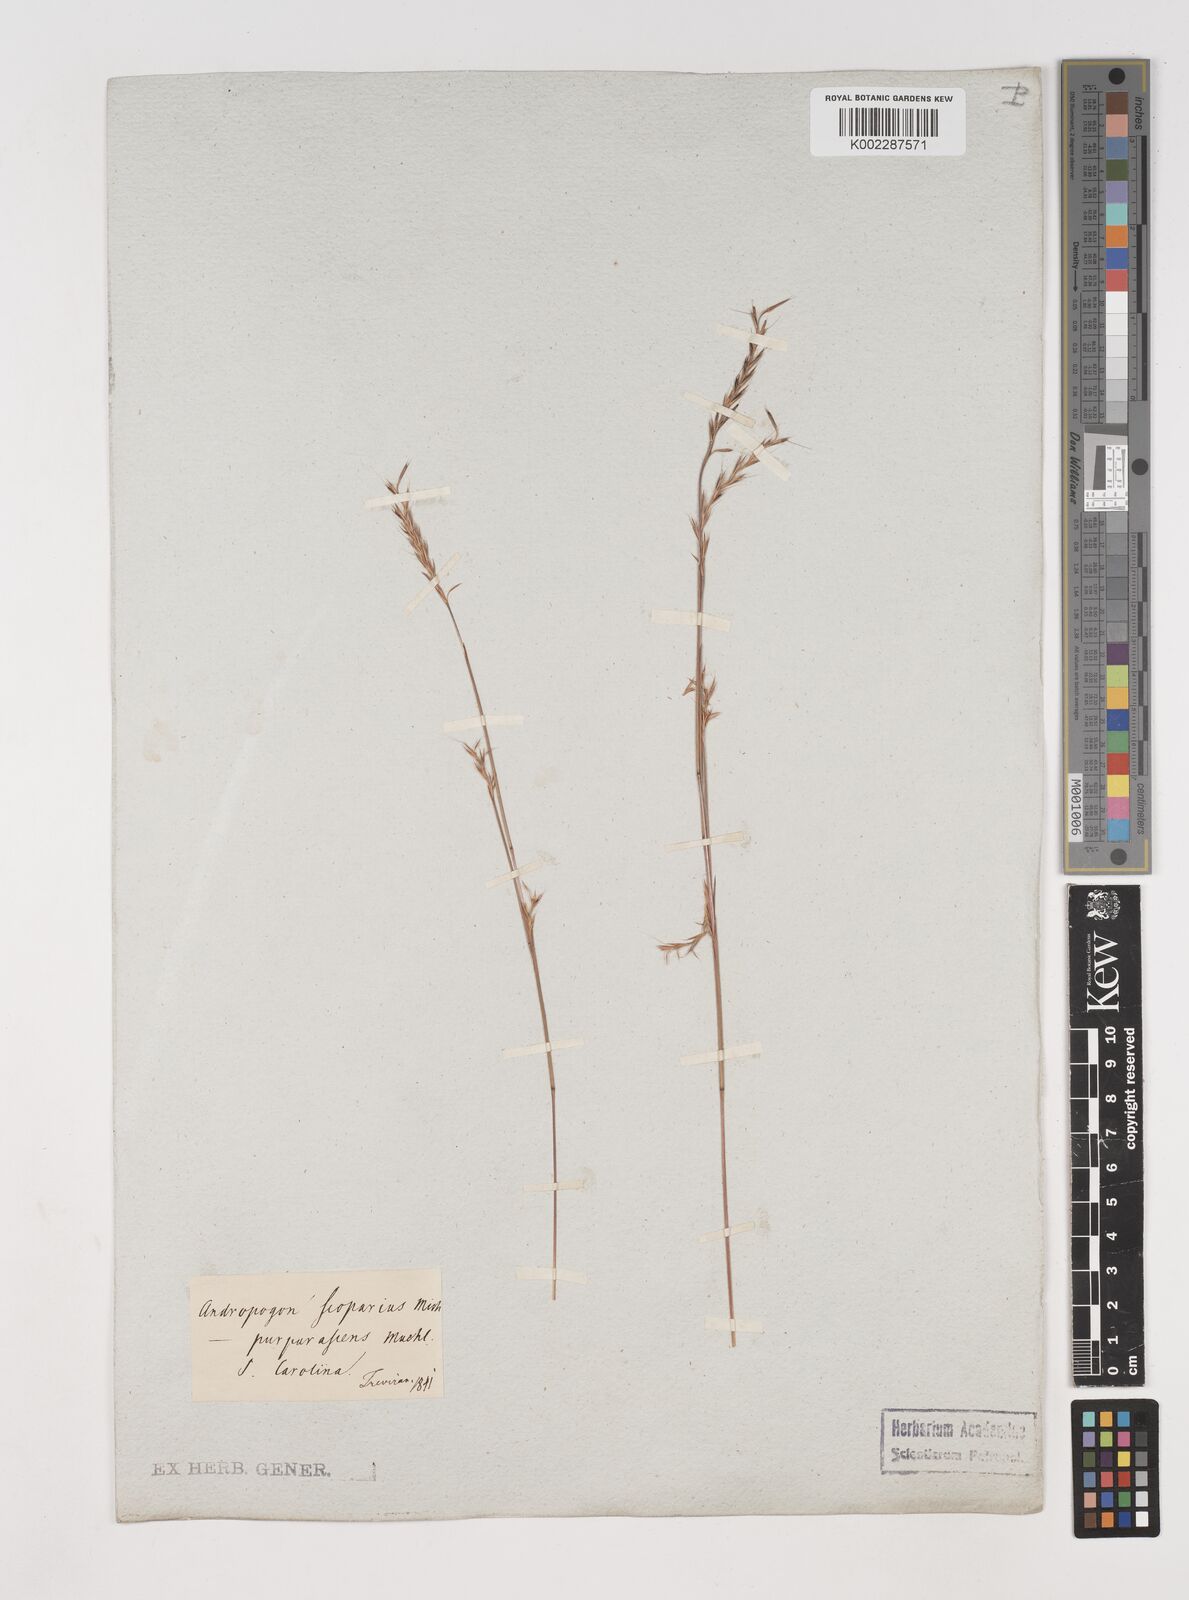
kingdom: Plantae
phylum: Tracheophyta
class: Liliopsida
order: Poales
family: Poaceae
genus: Schizachyrium
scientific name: Schizachyrium scoparium
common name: Little bluestem
